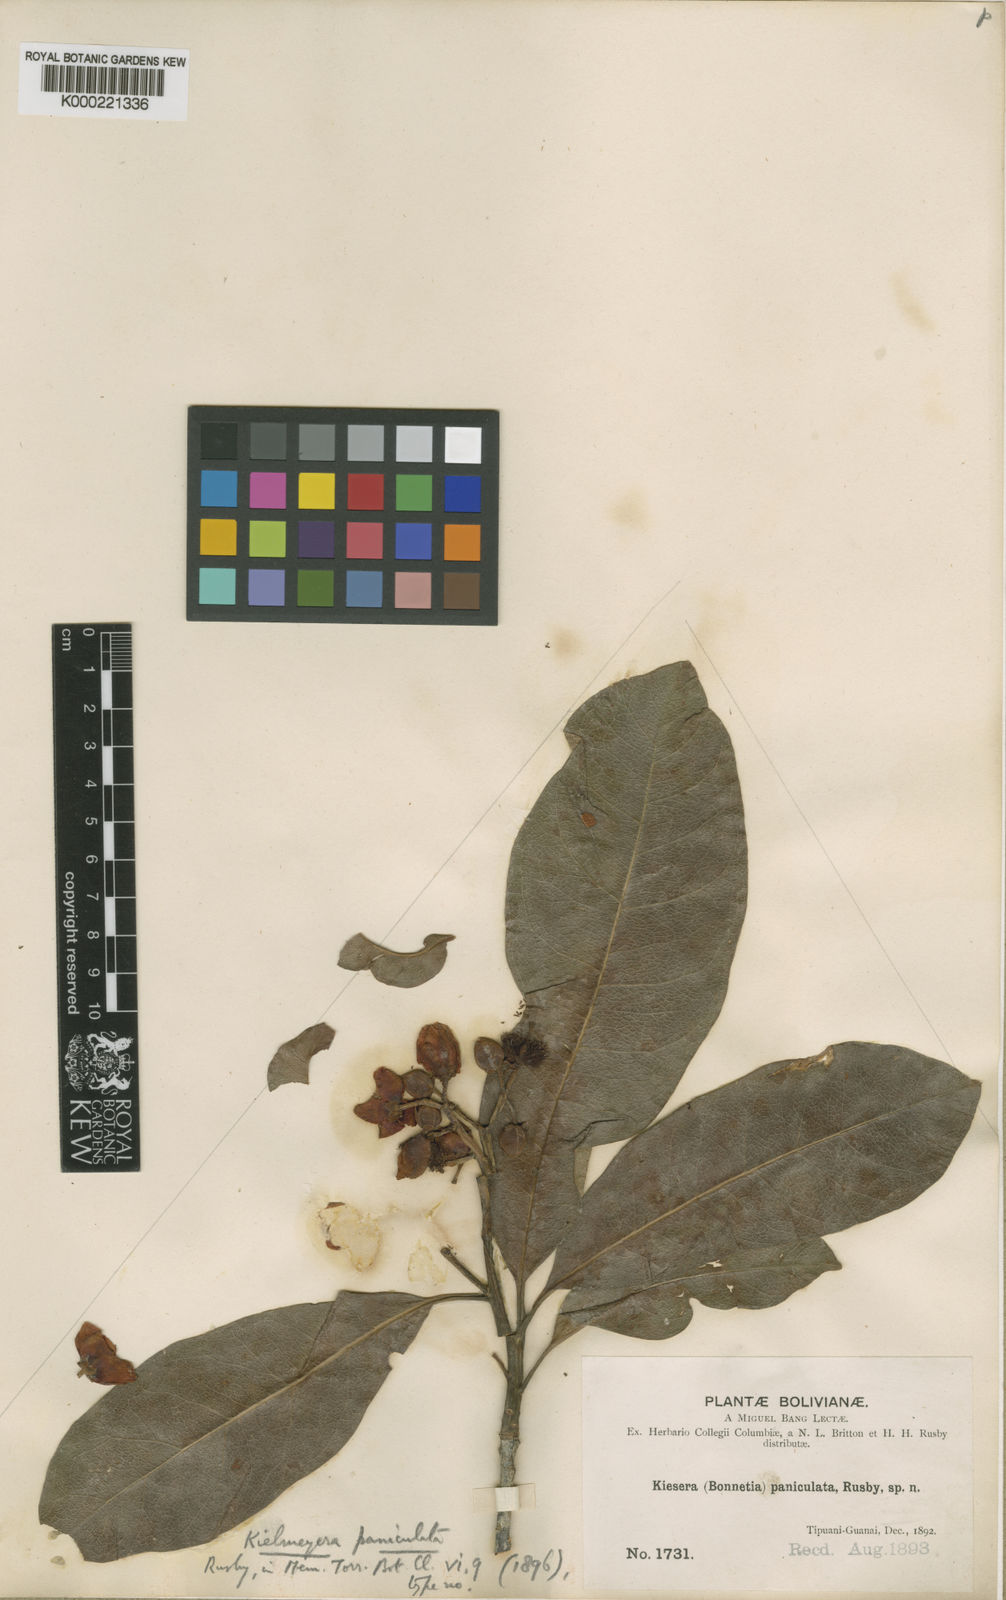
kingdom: Plantae
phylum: Tracheophyta
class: Magnoliopsida
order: Malpighiales
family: Calophyllaceae
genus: Kielmeyera
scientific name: Kielmeyera paniculata
